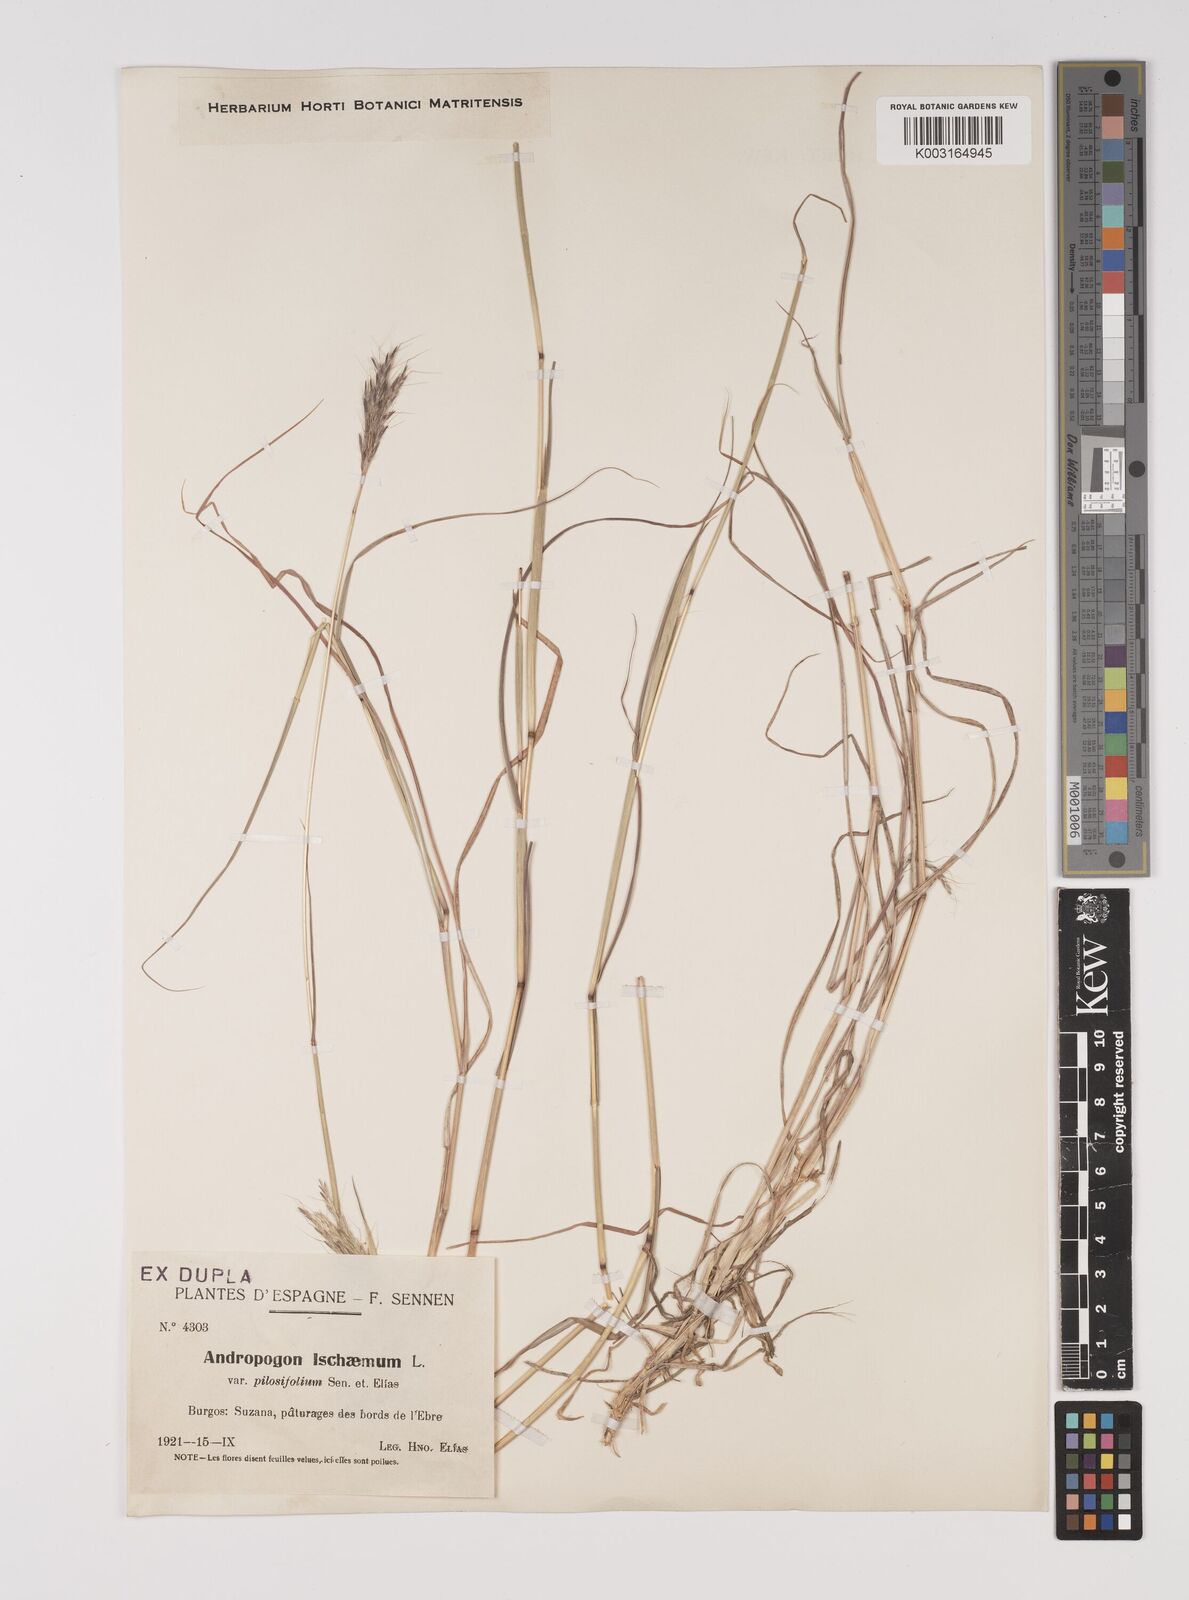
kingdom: Plantae
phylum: Tracheophyta
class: Liliopsida
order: Poales
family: Poaceae
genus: Bothriochloa
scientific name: Bothriochloa ischaemum
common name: Yellow bluestem
